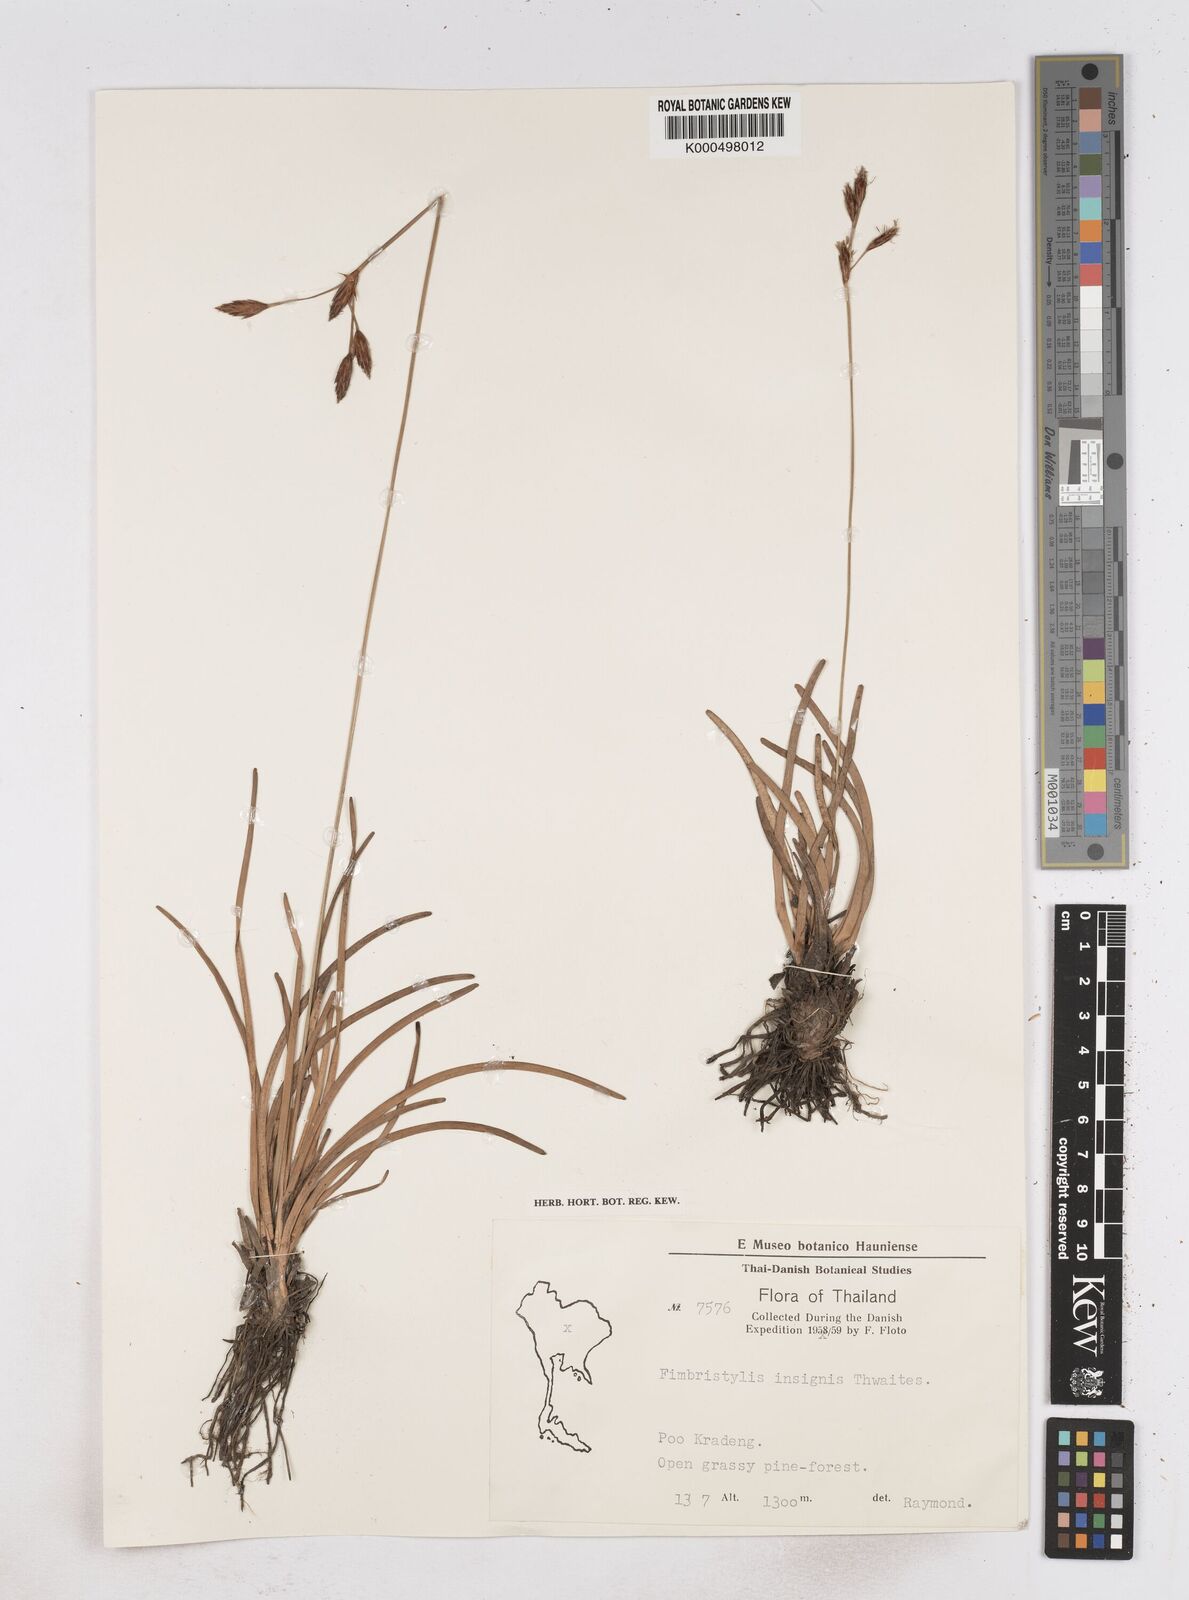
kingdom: Plantae
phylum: Tracheophyta
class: Liliopsida
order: Poales
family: Cyperaceae
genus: Fimbristylis
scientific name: Fimbristylis insignis
